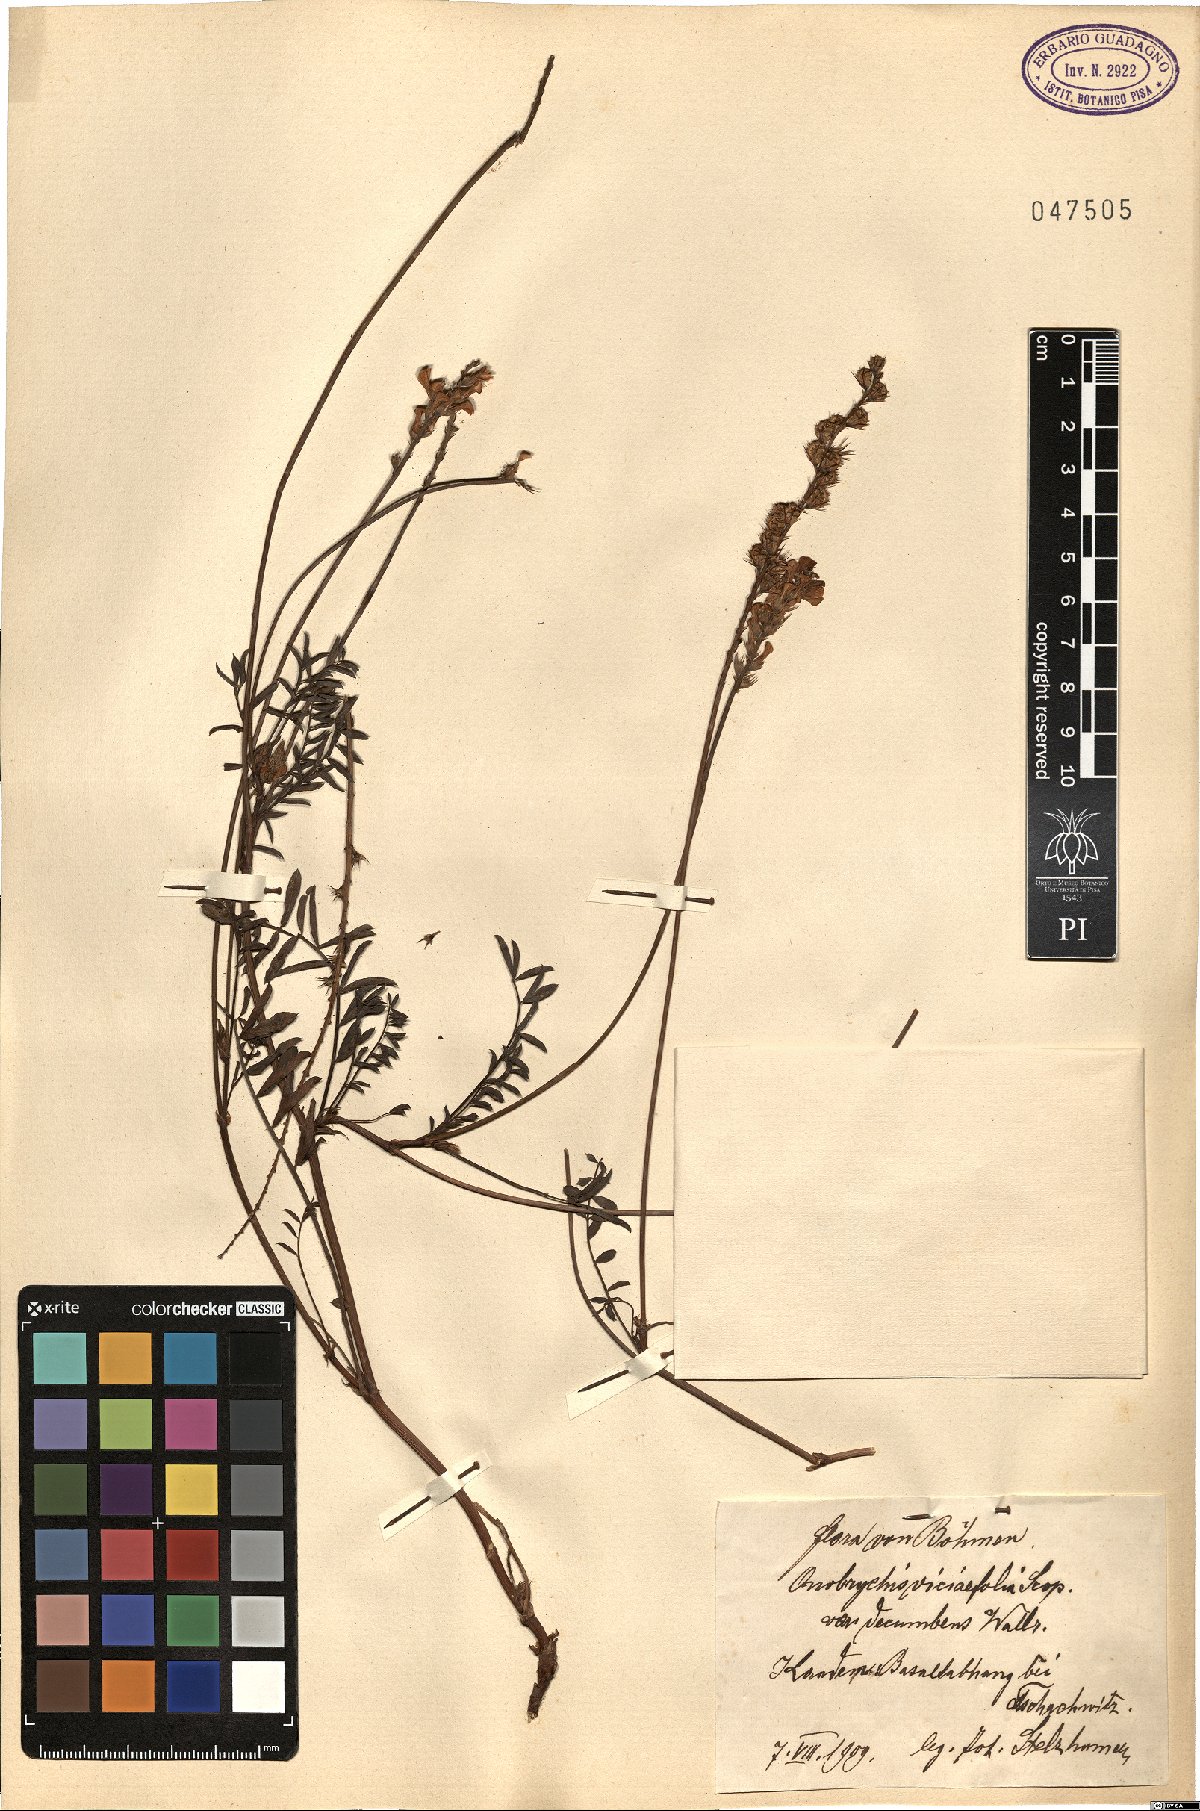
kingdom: Plantae
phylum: Tracheophyta
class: Magnoliopsida
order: Fabales
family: Fabaceae
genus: Onobrychis
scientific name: Onobrychis montana
